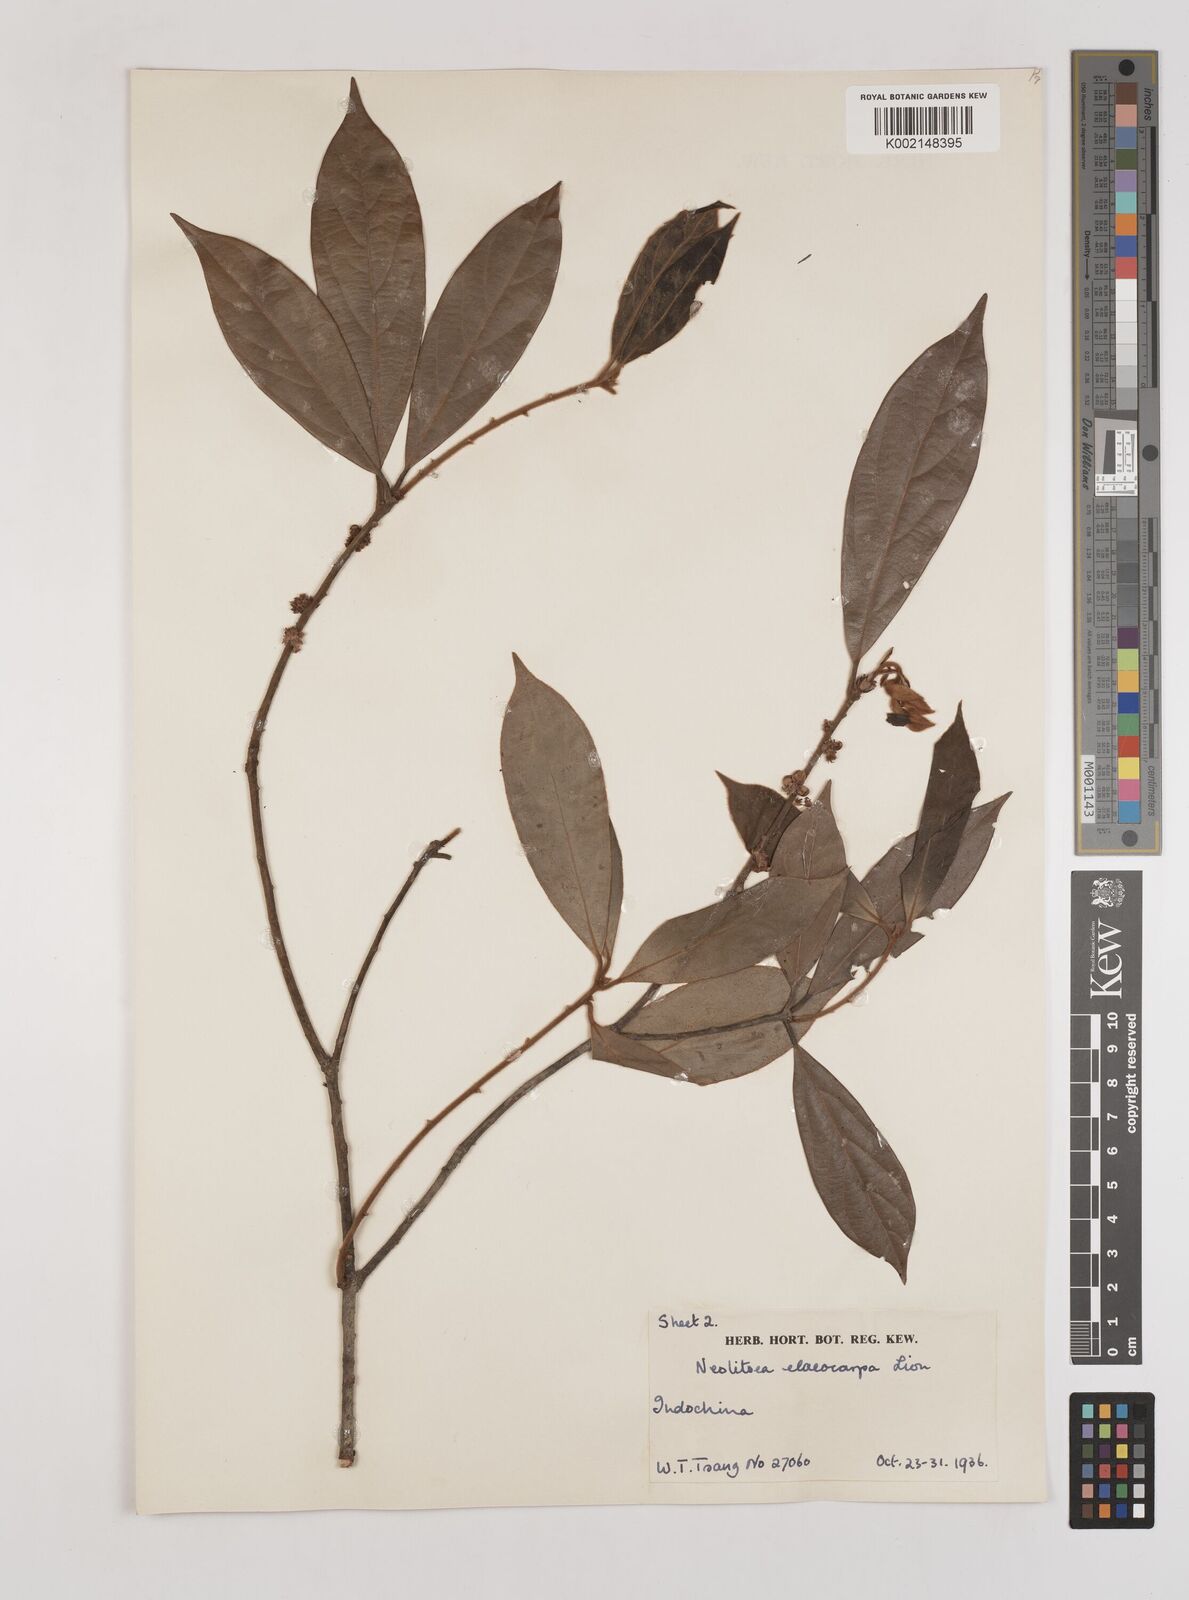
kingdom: Plantae
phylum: Tracheophyta
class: Magnoliopsida
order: Laurales
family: Lauraceae
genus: Neolitsea
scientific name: Neolitsea elaeocarpa
